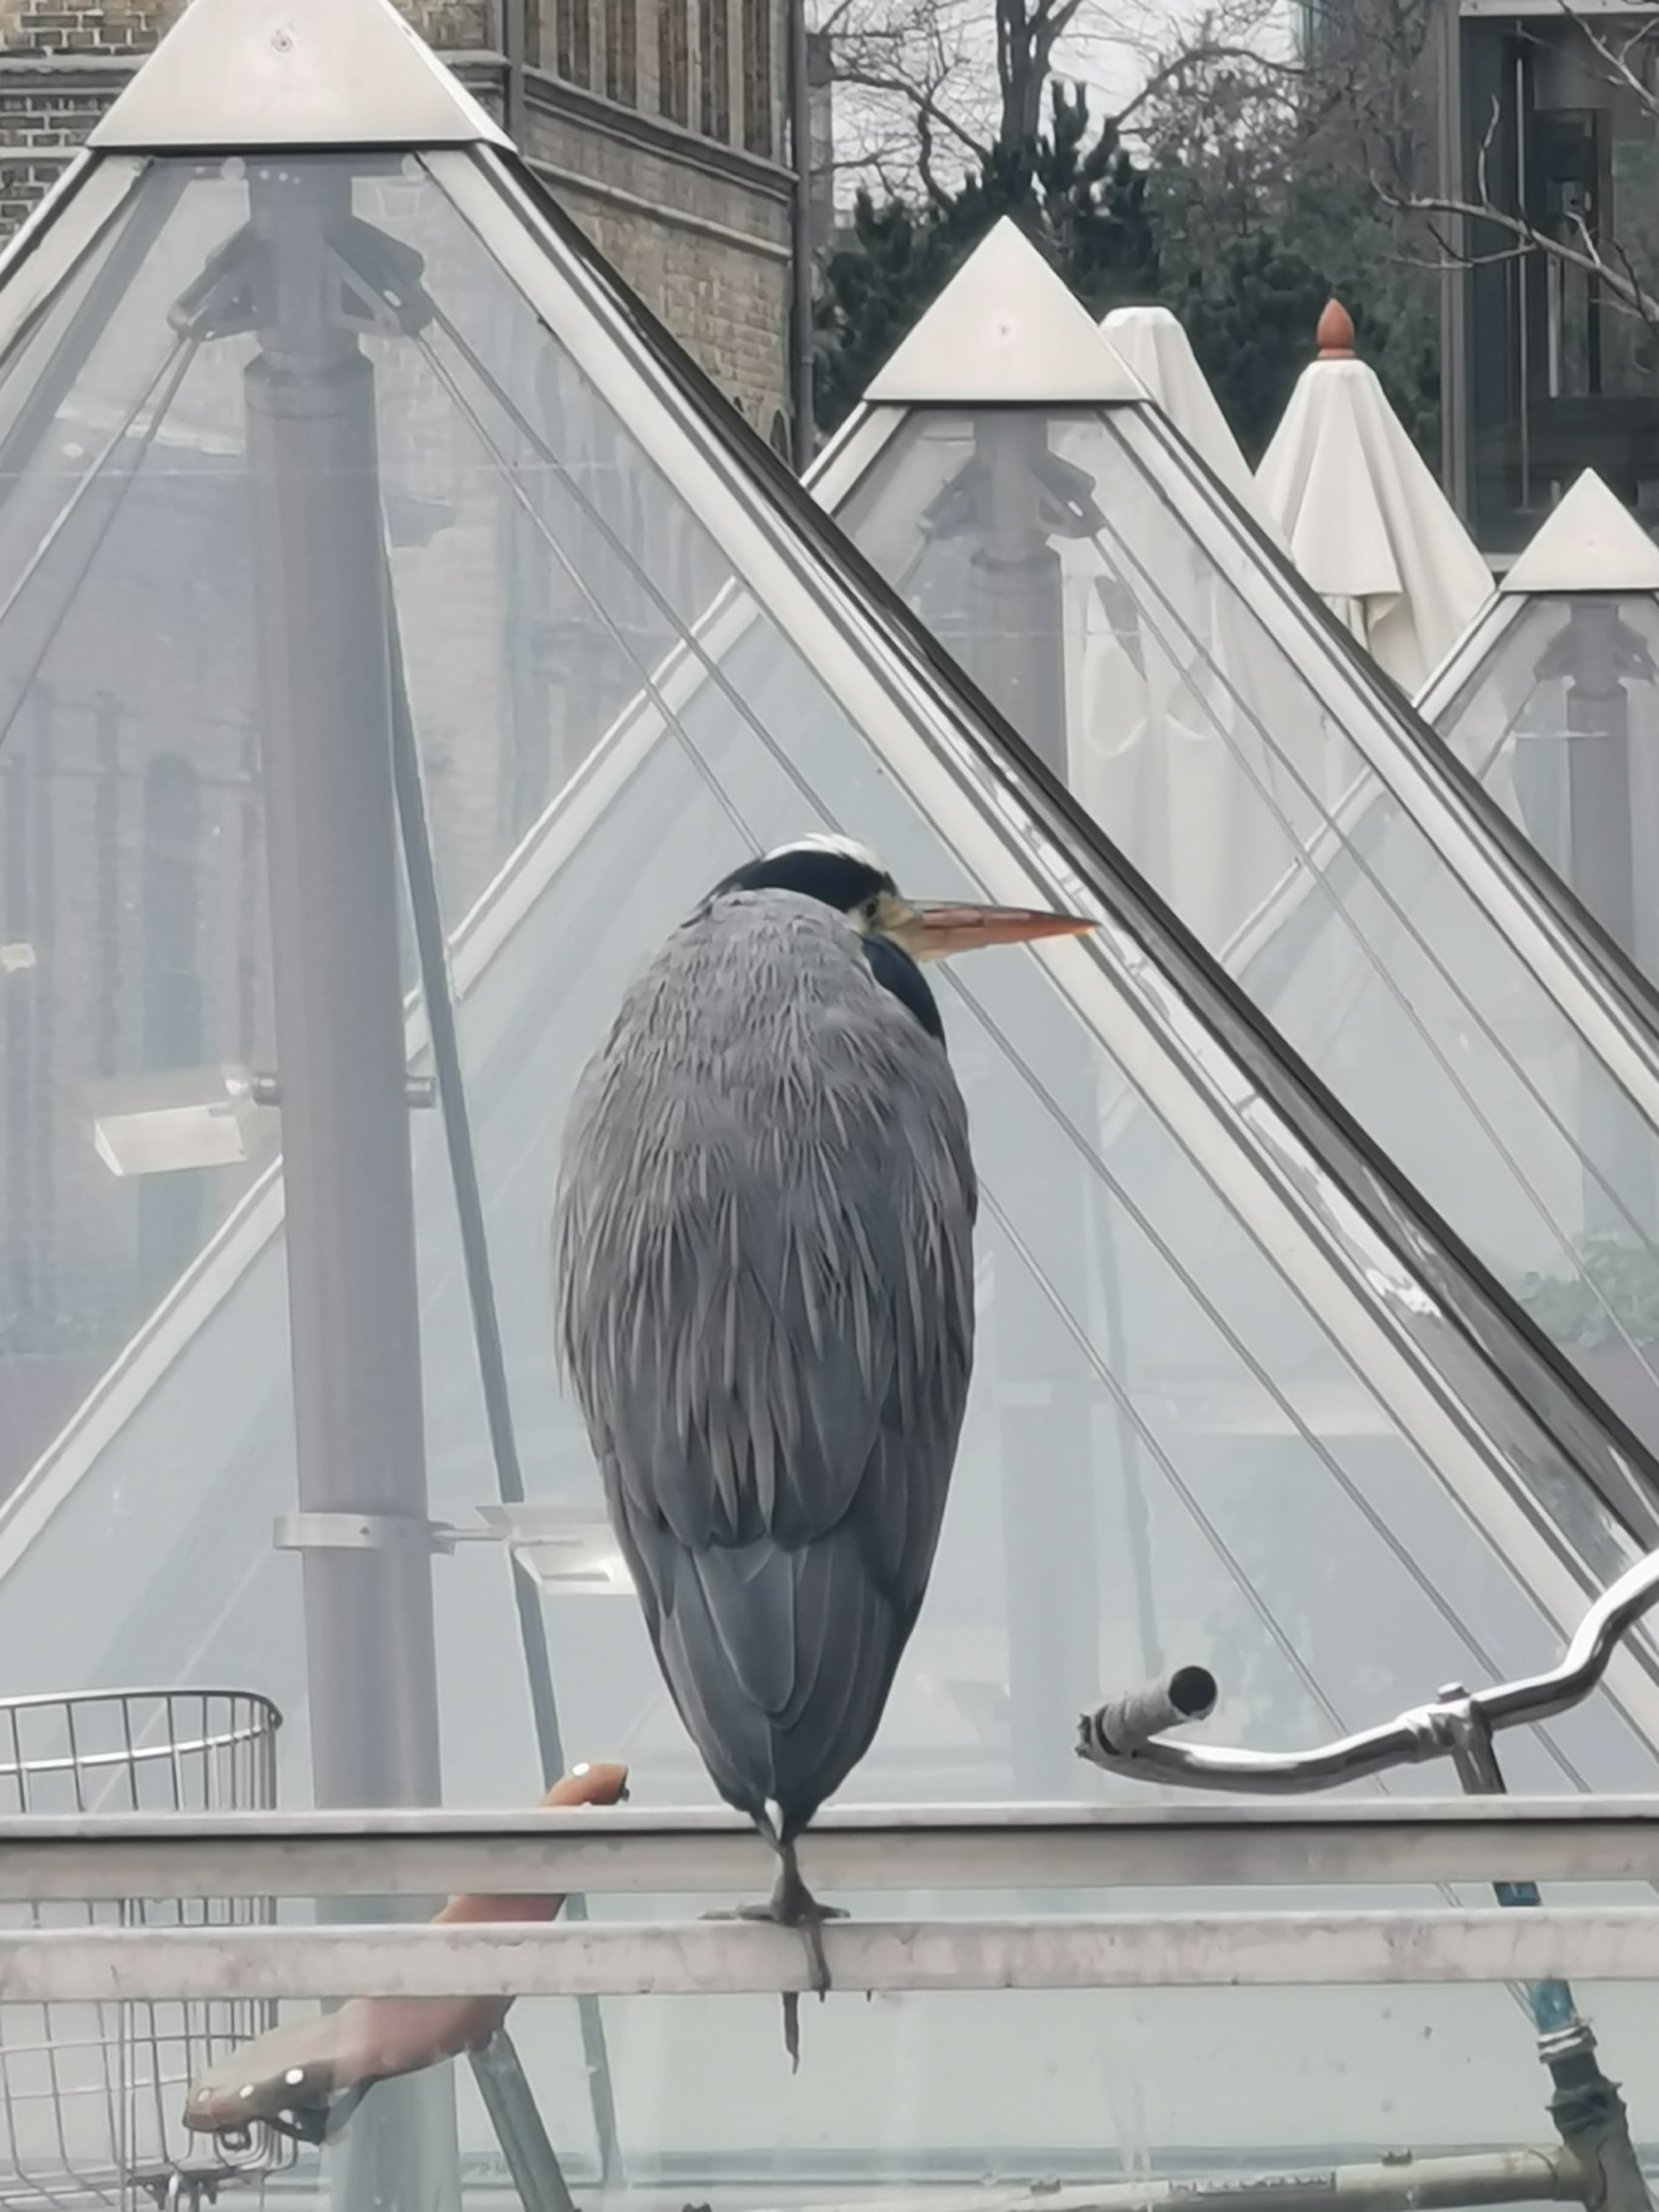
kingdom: Animalia
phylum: Chordata
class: Aves
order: Pelecaniformes
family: Ardeidae
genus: Ardea
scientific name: Ardea cinerea
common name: Fiskehejre
